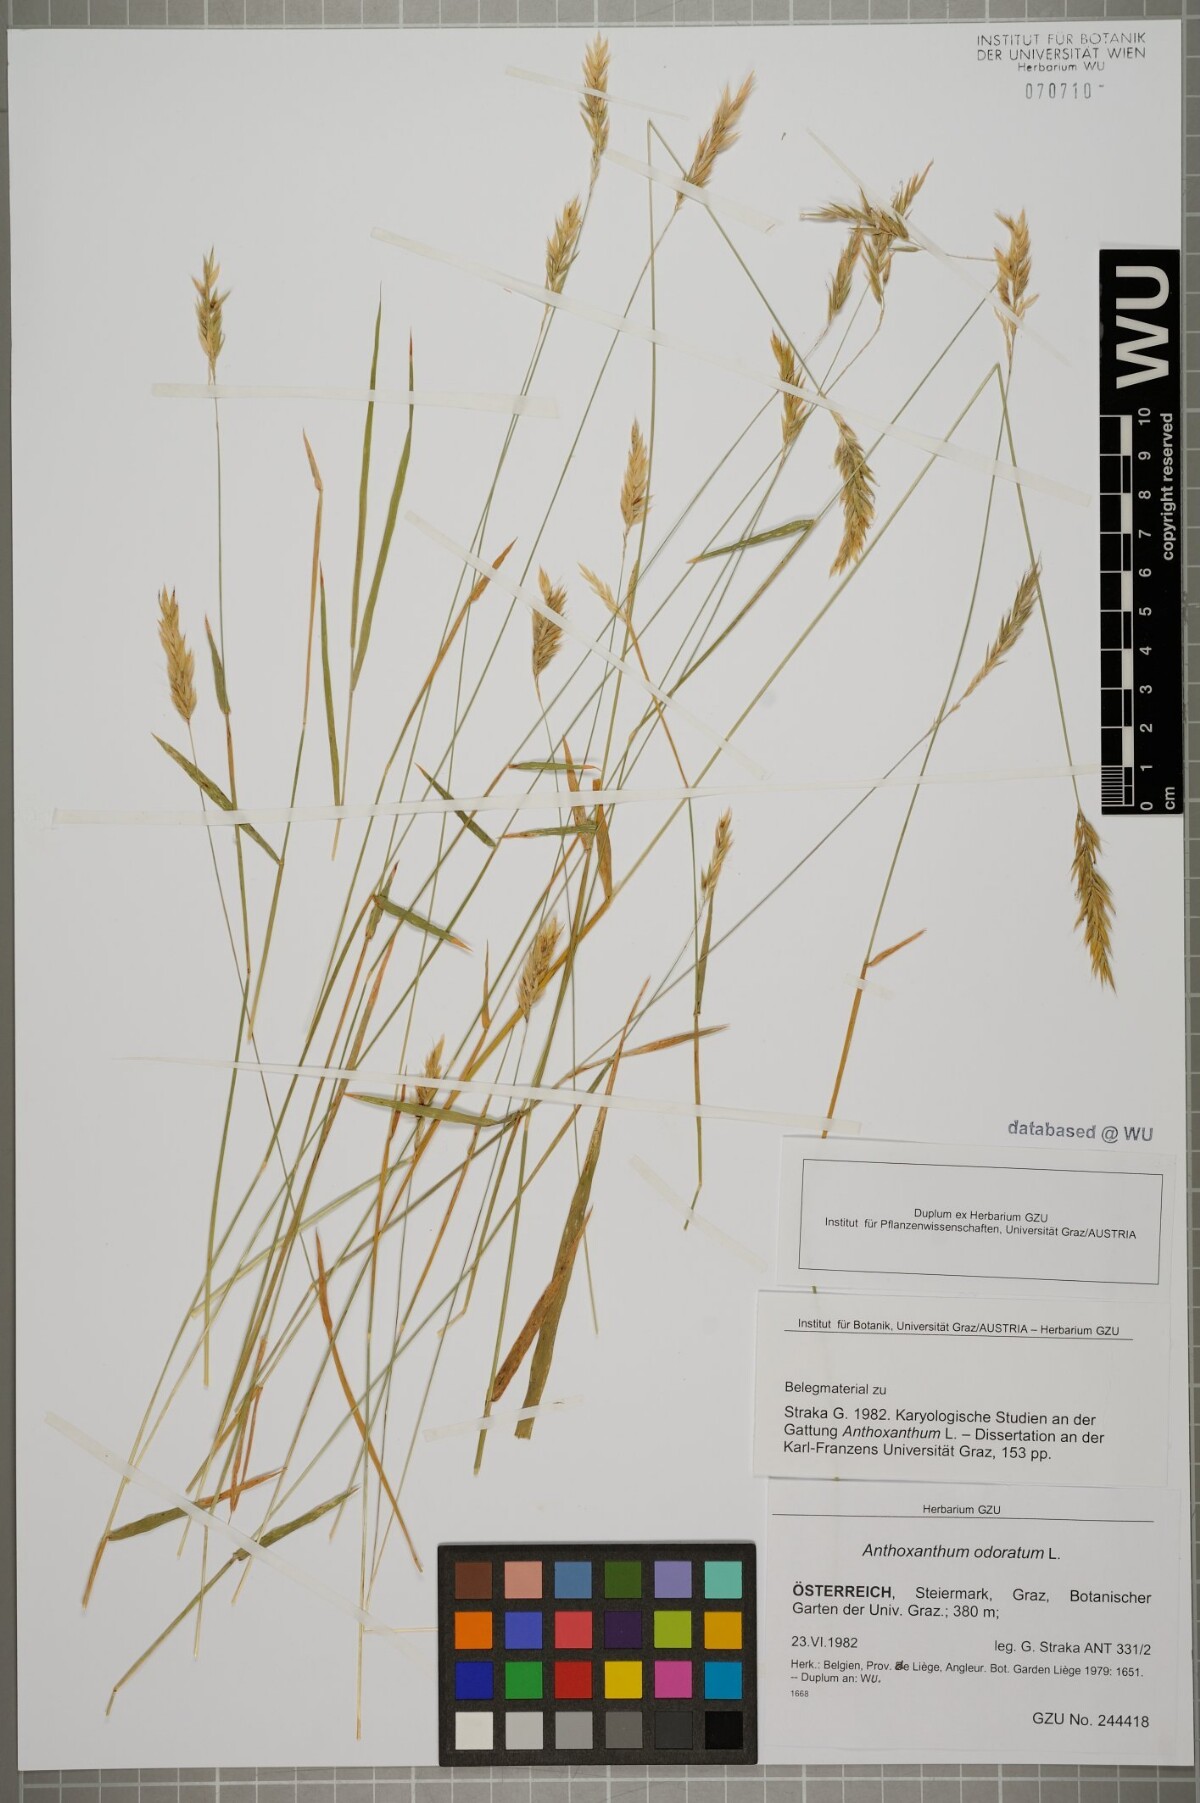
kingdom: Plantae
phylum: Tracheophyta
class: Liliopsida
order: Poales
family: Poaceae
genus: Anthoxanthum
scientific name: Anthoxanthum odoratum
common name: Sweet vernalgrass
